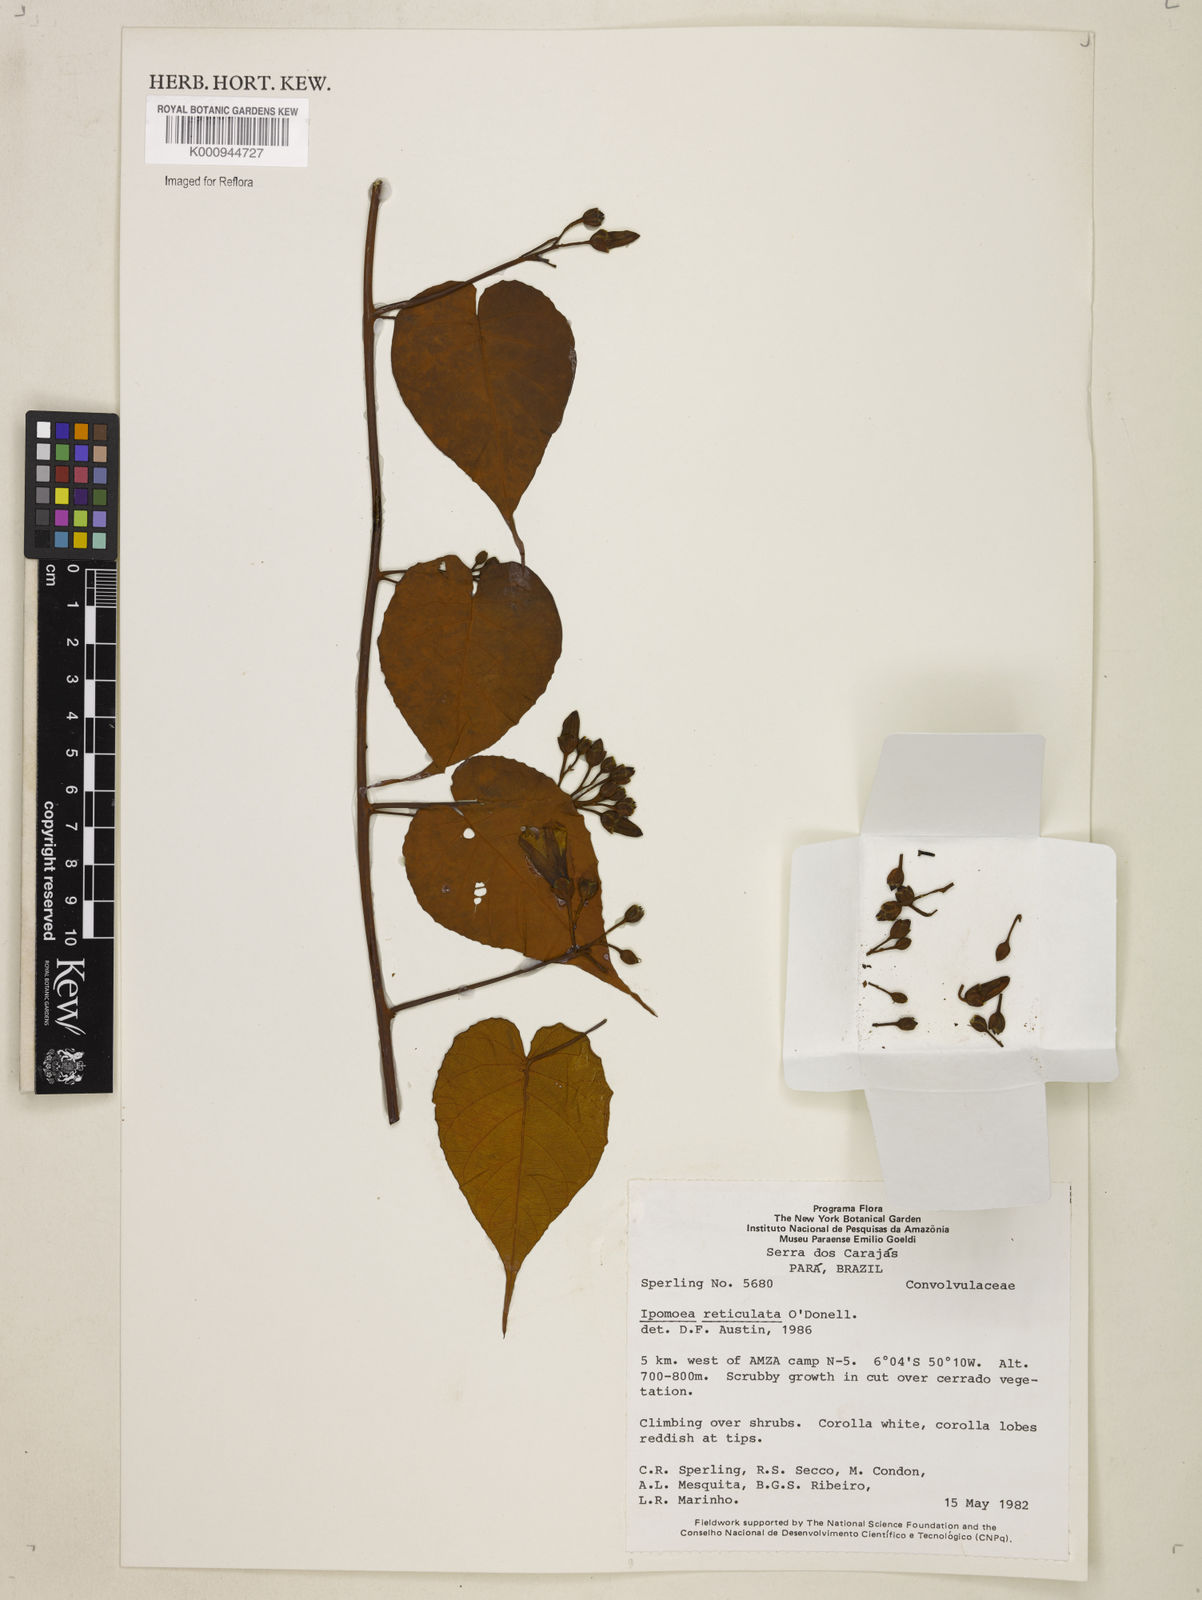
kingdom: Plantae
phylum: Tracheophyta
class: Magnoliopsida
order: Solanales
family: Convolvulaceae
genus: Ipomoea
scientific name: Ipomoea reticulata
